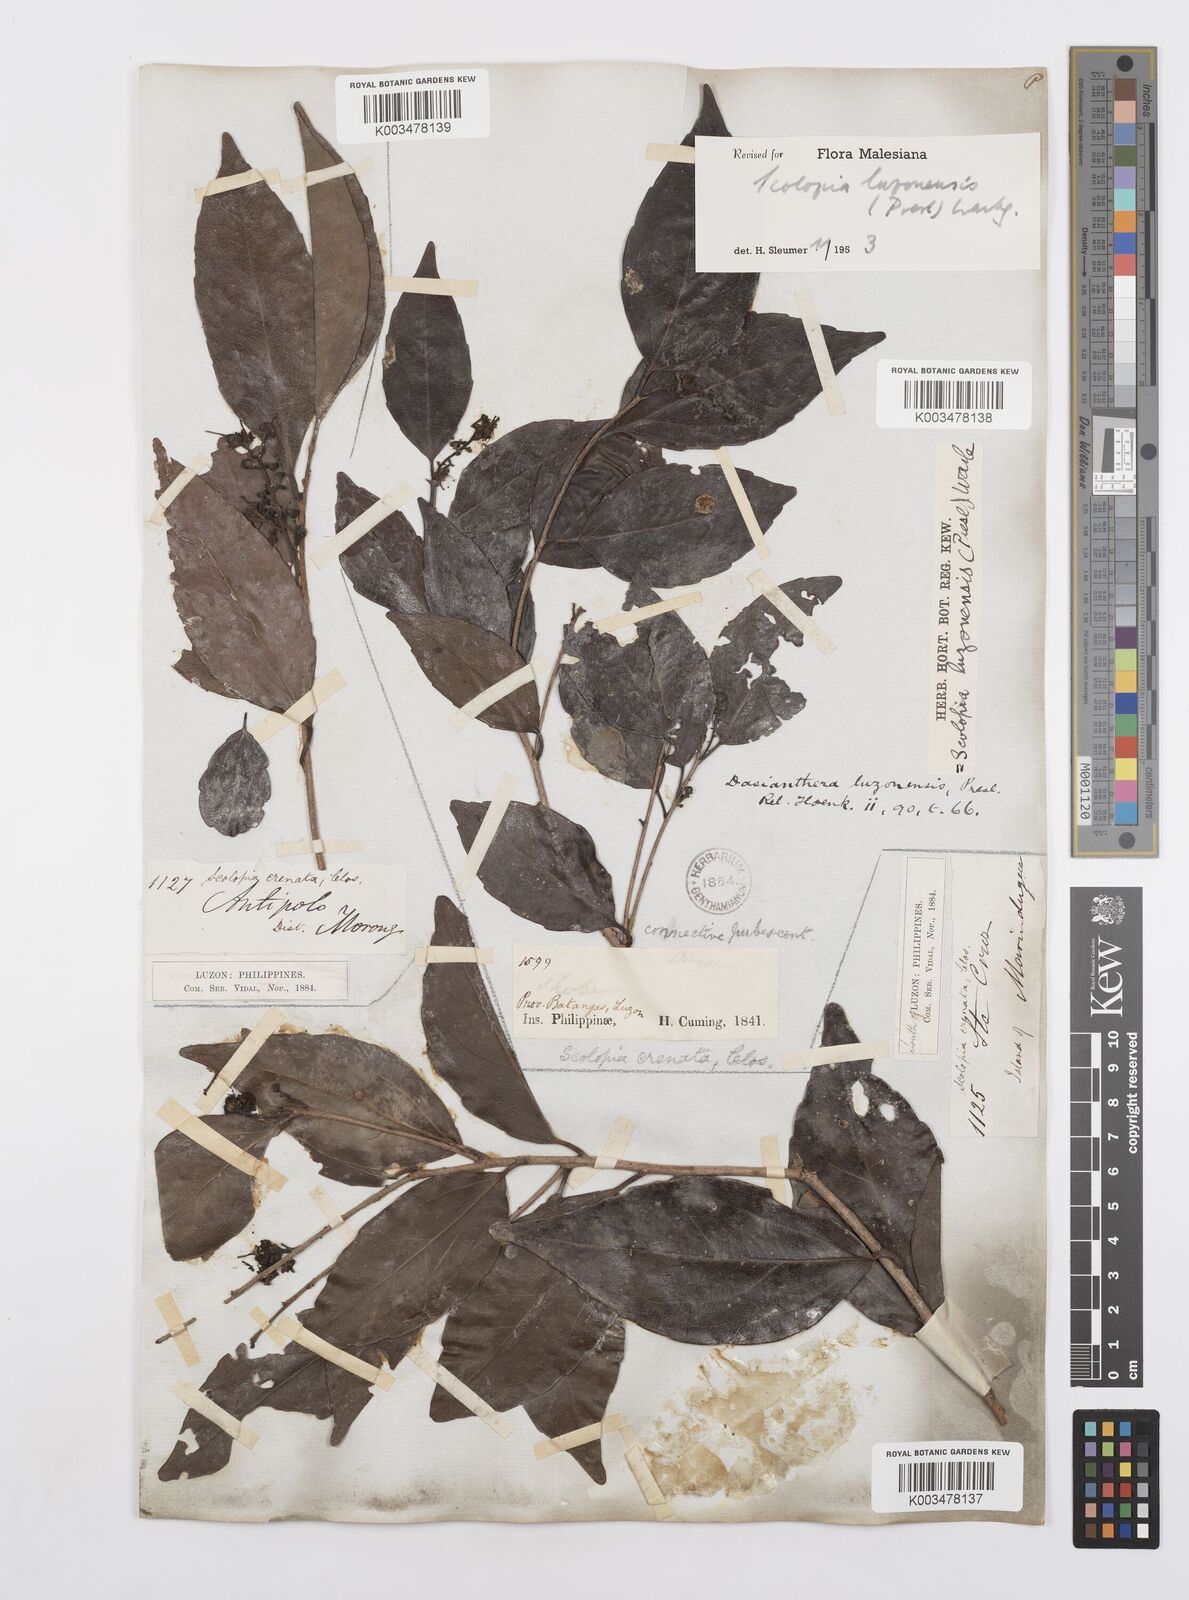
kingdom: Plantae
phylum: Tracheophyta
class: Magnoliopsida
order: Malpighiales
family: Salicaceae
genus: Scolopia
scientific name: Scolopia luzonensis
